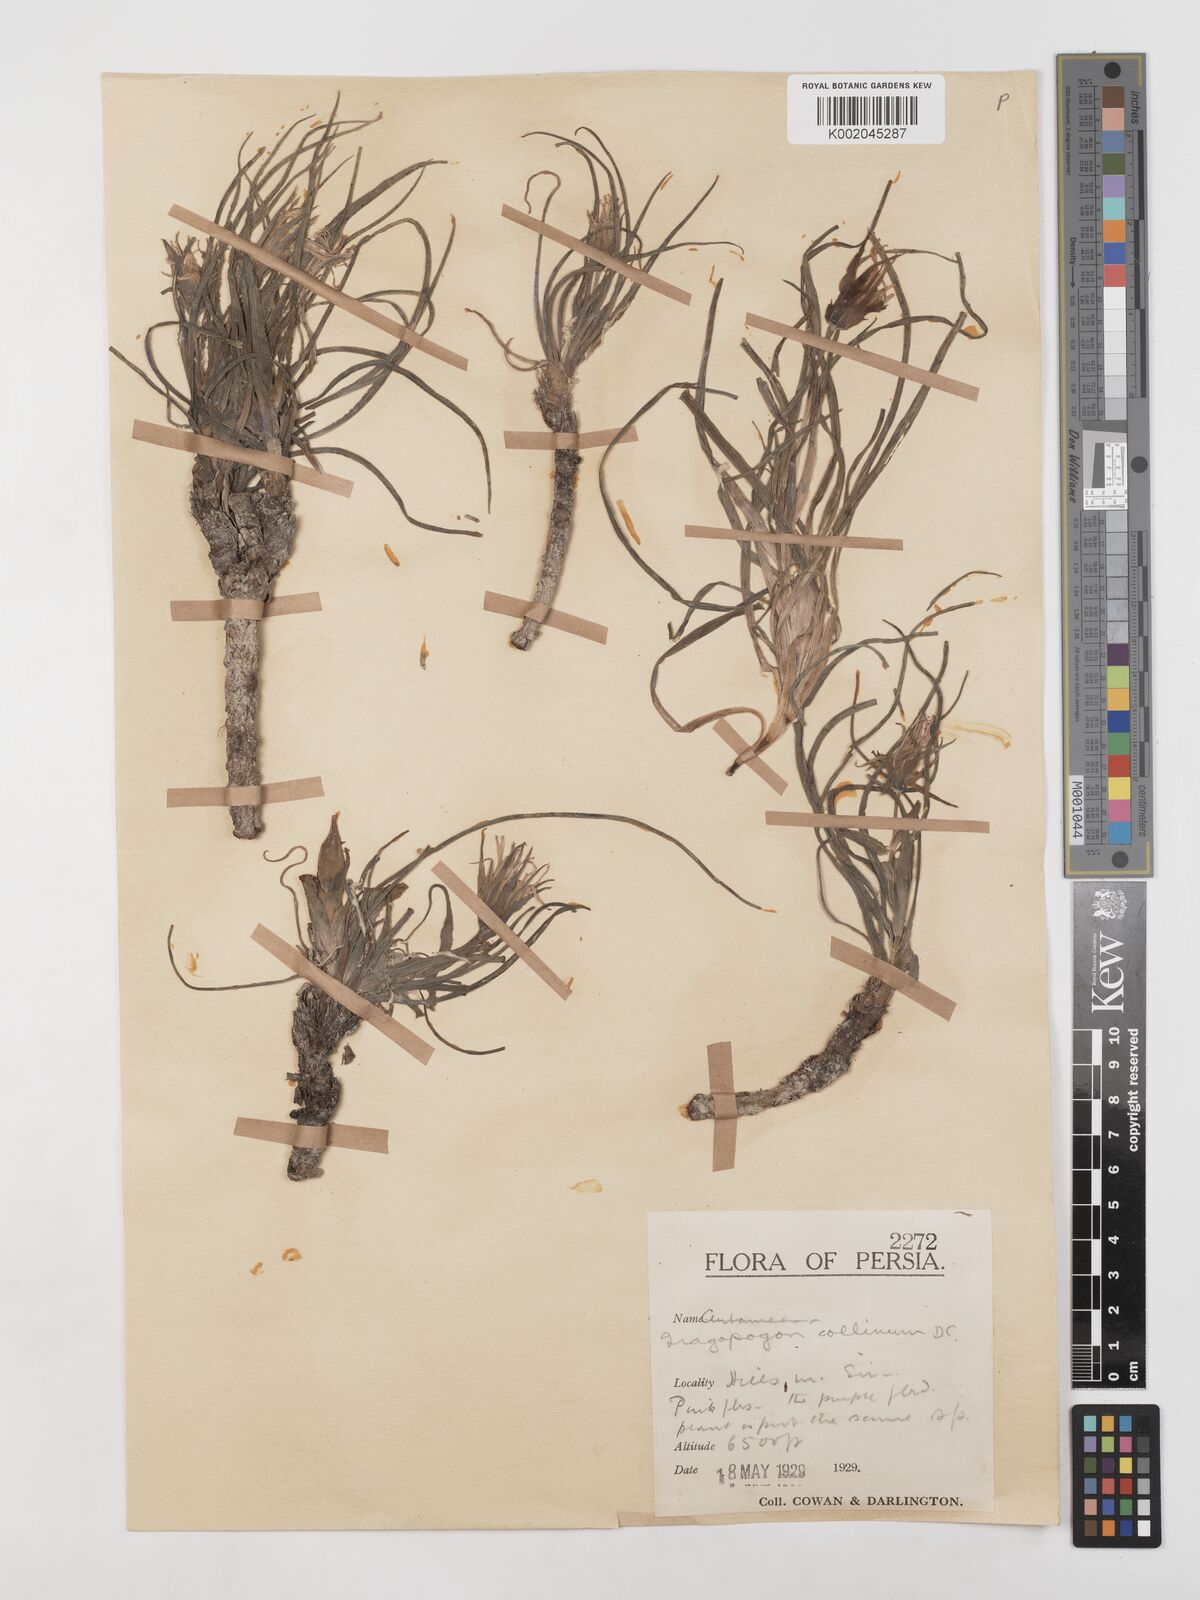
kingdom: Plantae
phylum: Tracheophyta
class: Magnoliopsida
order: Asterales
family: Asteraceae
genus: Tragopogon
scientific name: Tragopogon collinus
